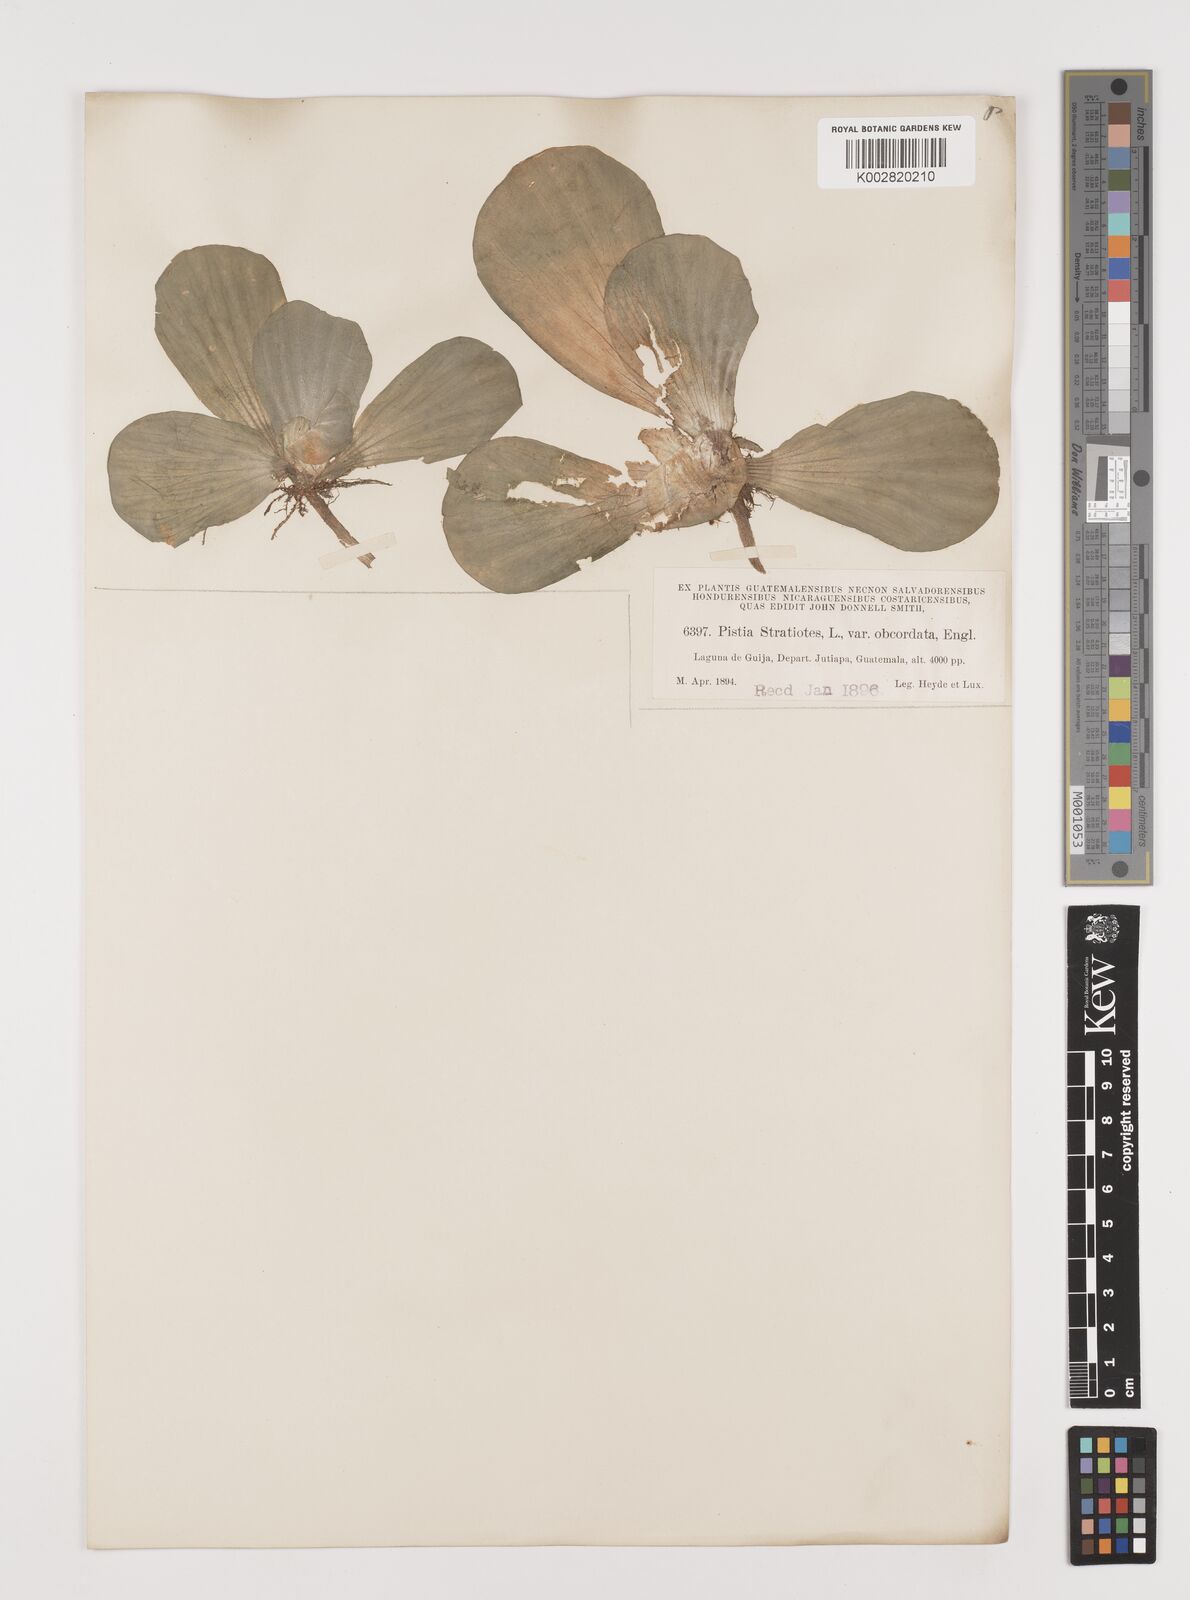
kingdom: Plantae
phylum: Tracheophyta
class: Liliopsida
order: Alismatales
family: Araceae
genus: Pistia
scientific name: Pistia stratiotes
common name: Water lettuce
